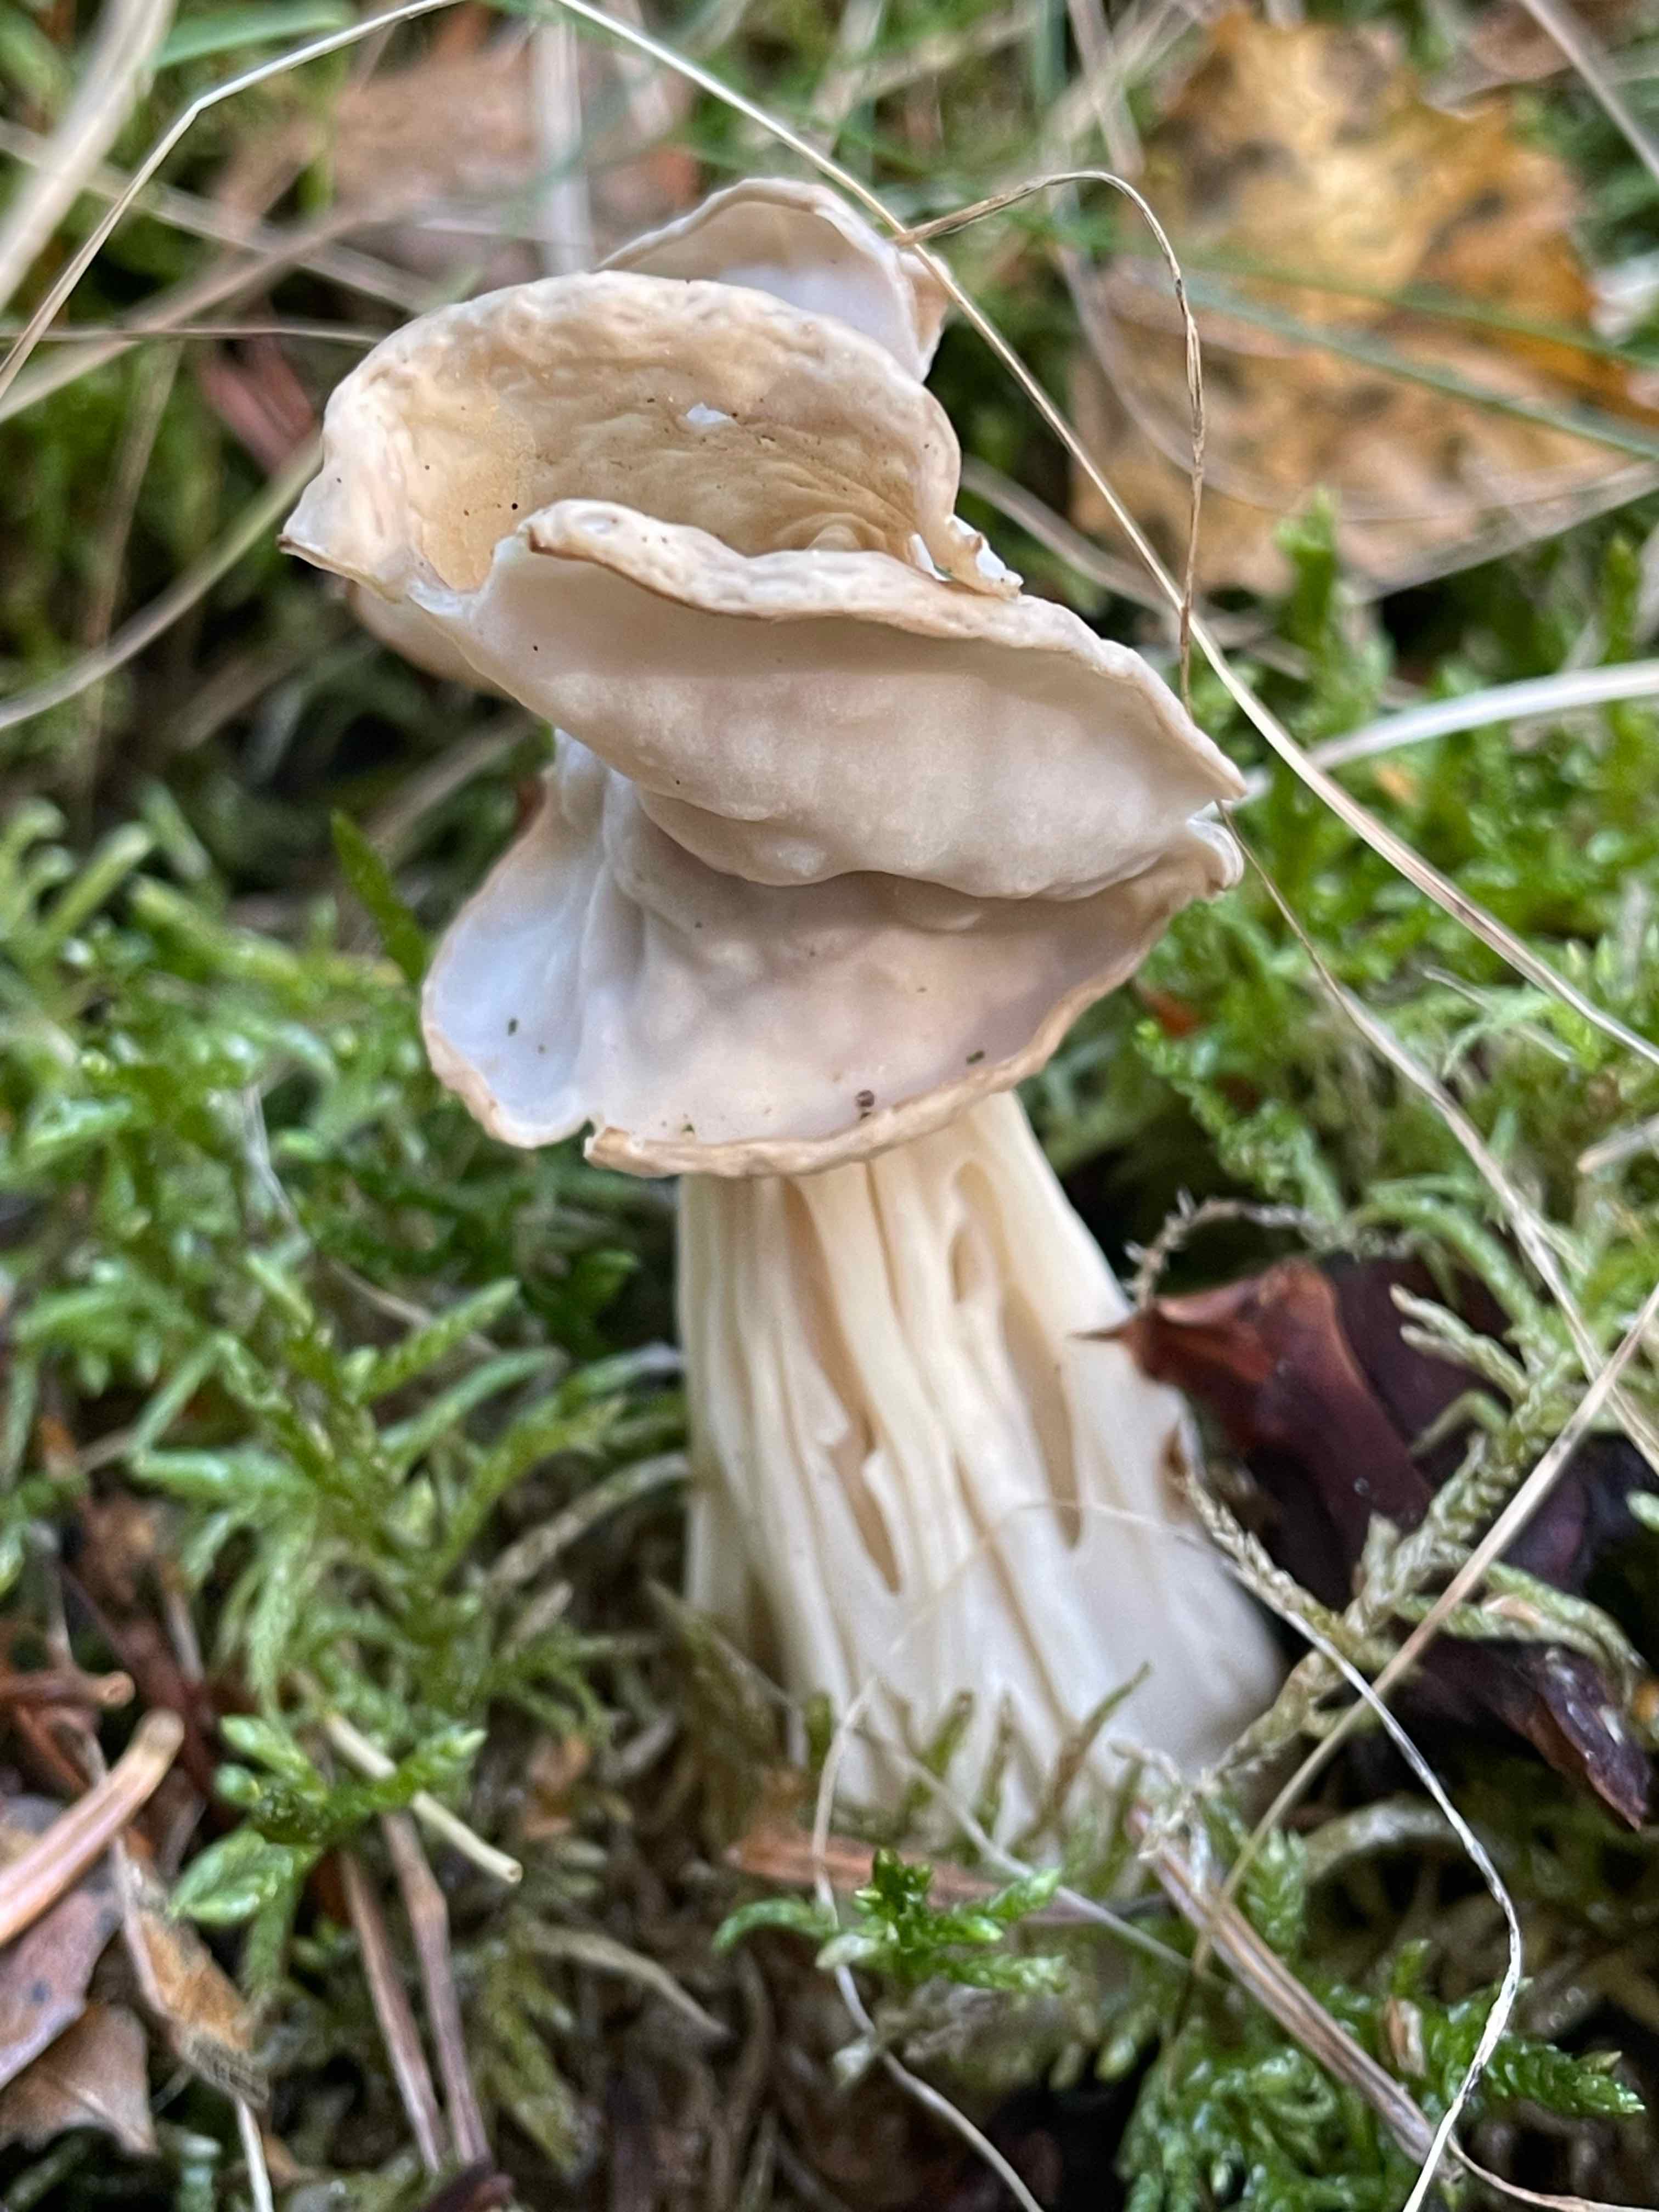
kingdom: Fungi
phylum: Ascomycota
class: Pezizomycetes
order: Pezizales
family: Helvellaceae
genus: Helvella
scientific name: Helvella crispa
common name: kruset foldhat
